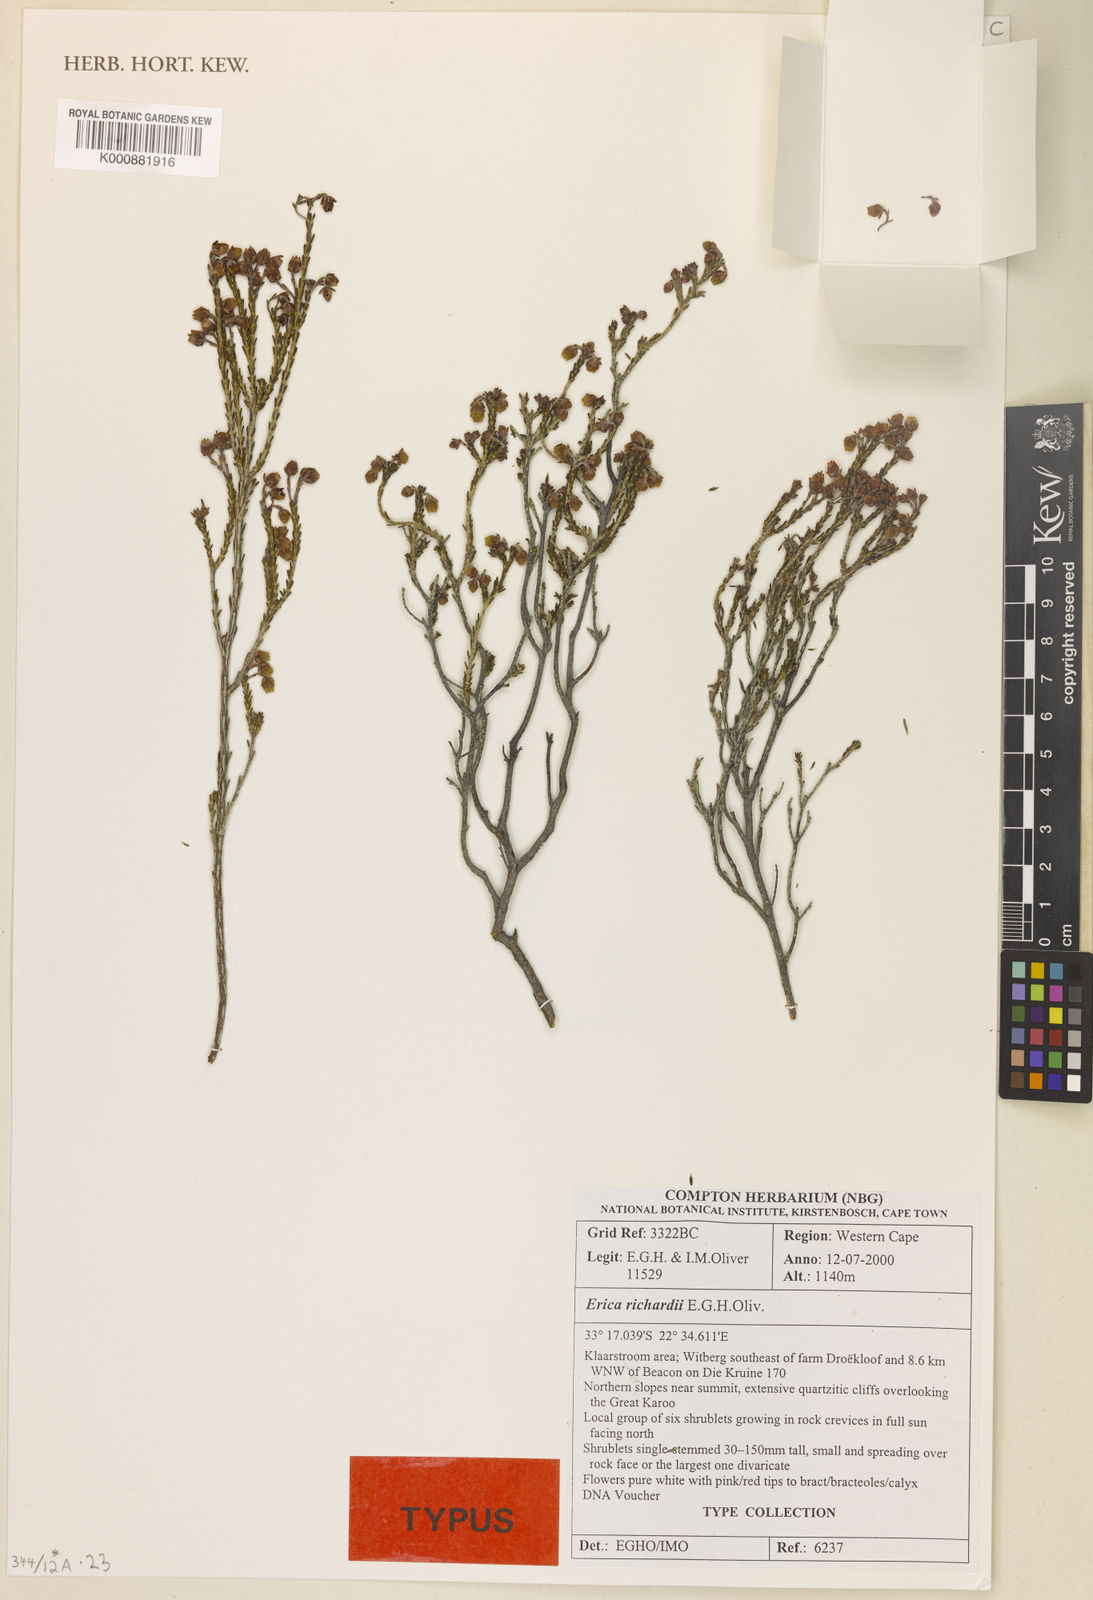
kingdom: Plantae
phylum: Tracheophyta
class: Magnoliopsida
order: Ericales
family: Ericaceae
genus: Erica
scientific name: Erica richardii
